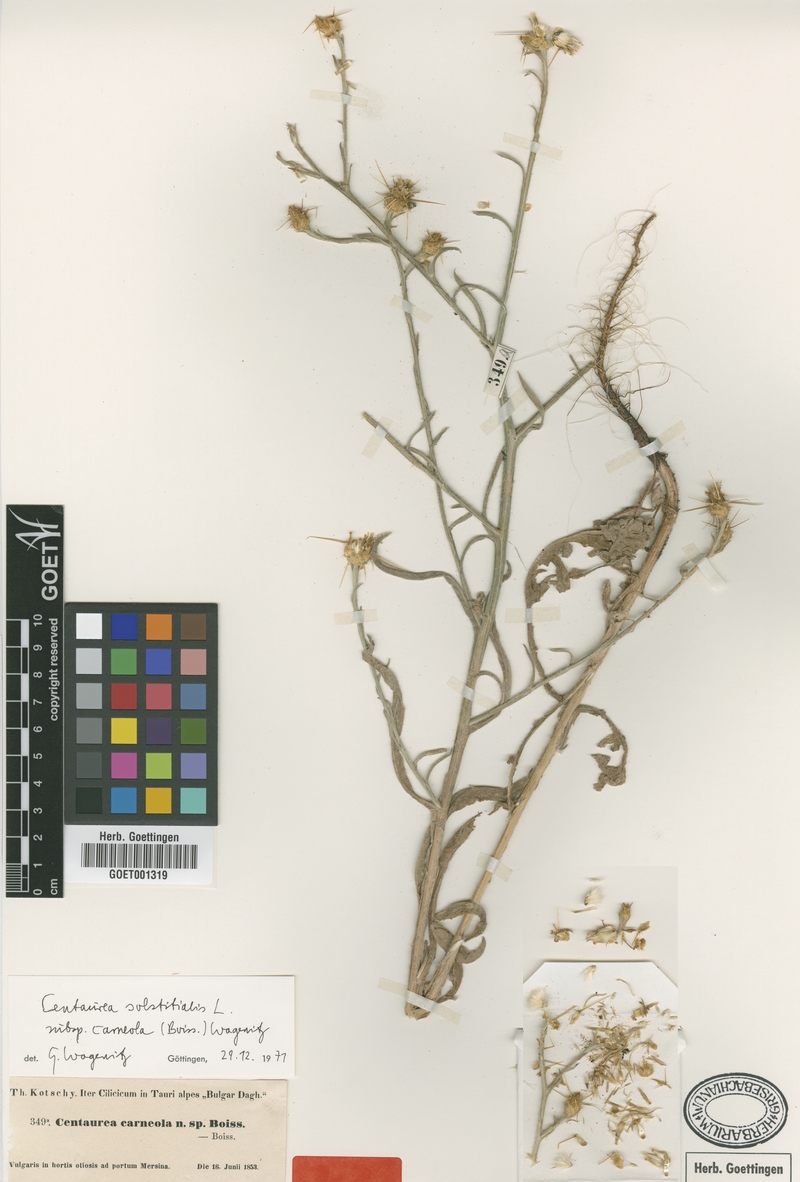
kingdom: Plantae
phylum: Tracheophyta
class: Magnoliopsida
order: Asterales
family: Asteraceae
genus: Centaurea
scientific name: Centaurea solstitialis
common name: Yellow star-thistle
